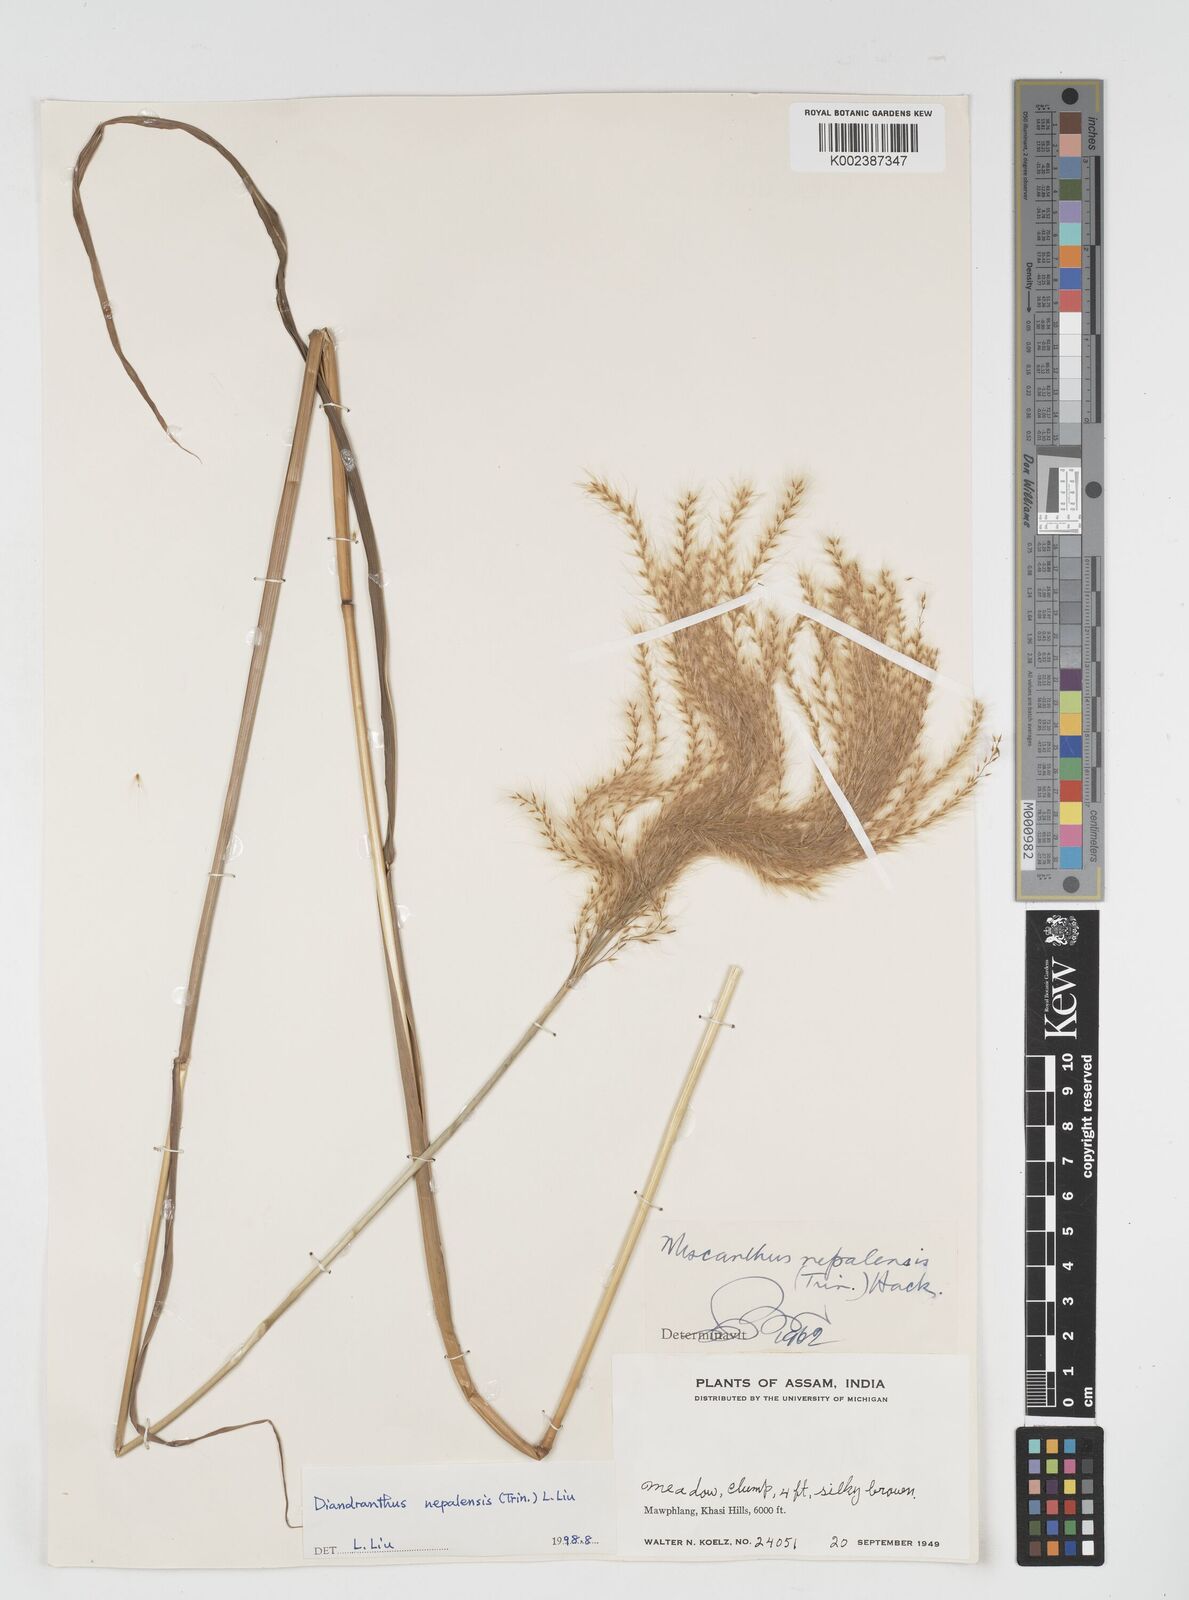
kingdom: Plantae
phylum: Tracheophyta
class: Liliopsida
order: Poales
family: Poaceae
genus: Miscanthus
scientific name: Miscanthus nepalensis
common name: Nepal silver grass
